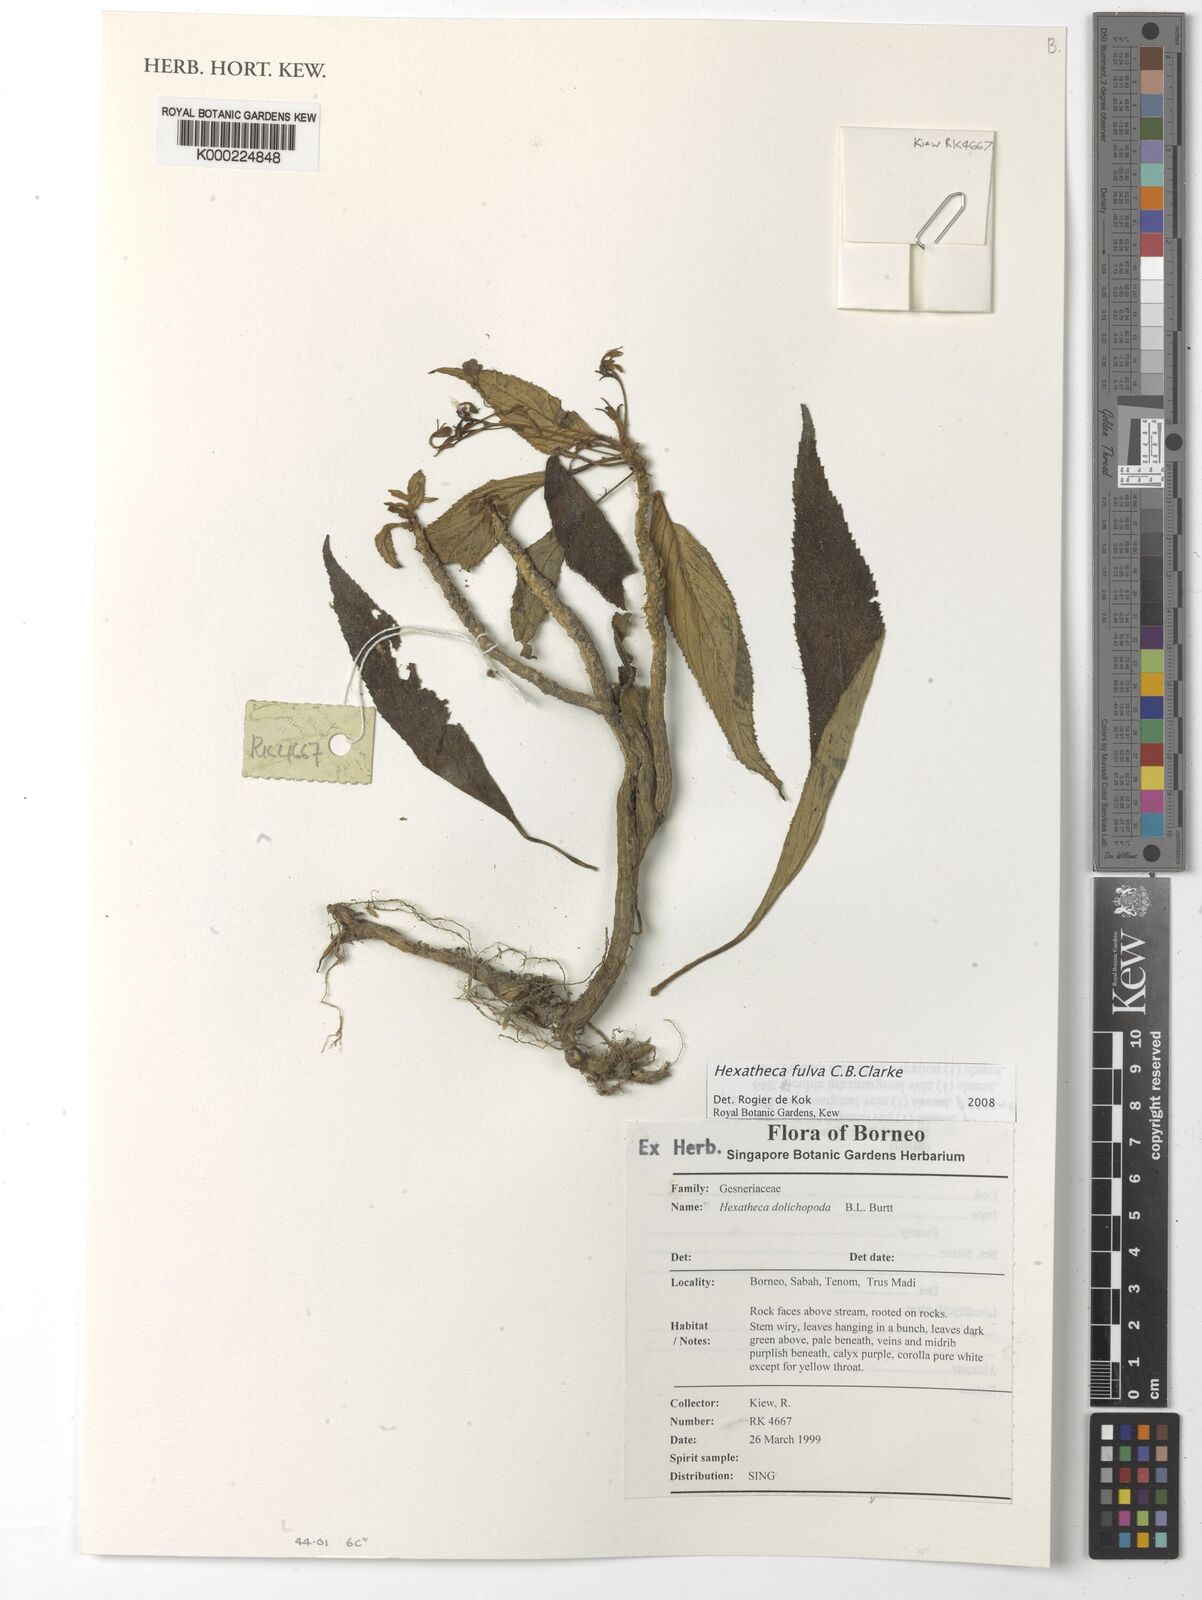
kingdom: Plantae
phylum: Tracheophyta
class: Magnoliopsida
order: Lamiales
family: Gesneriaceae
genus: Hexatheca
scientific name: Hexatheca fulva
